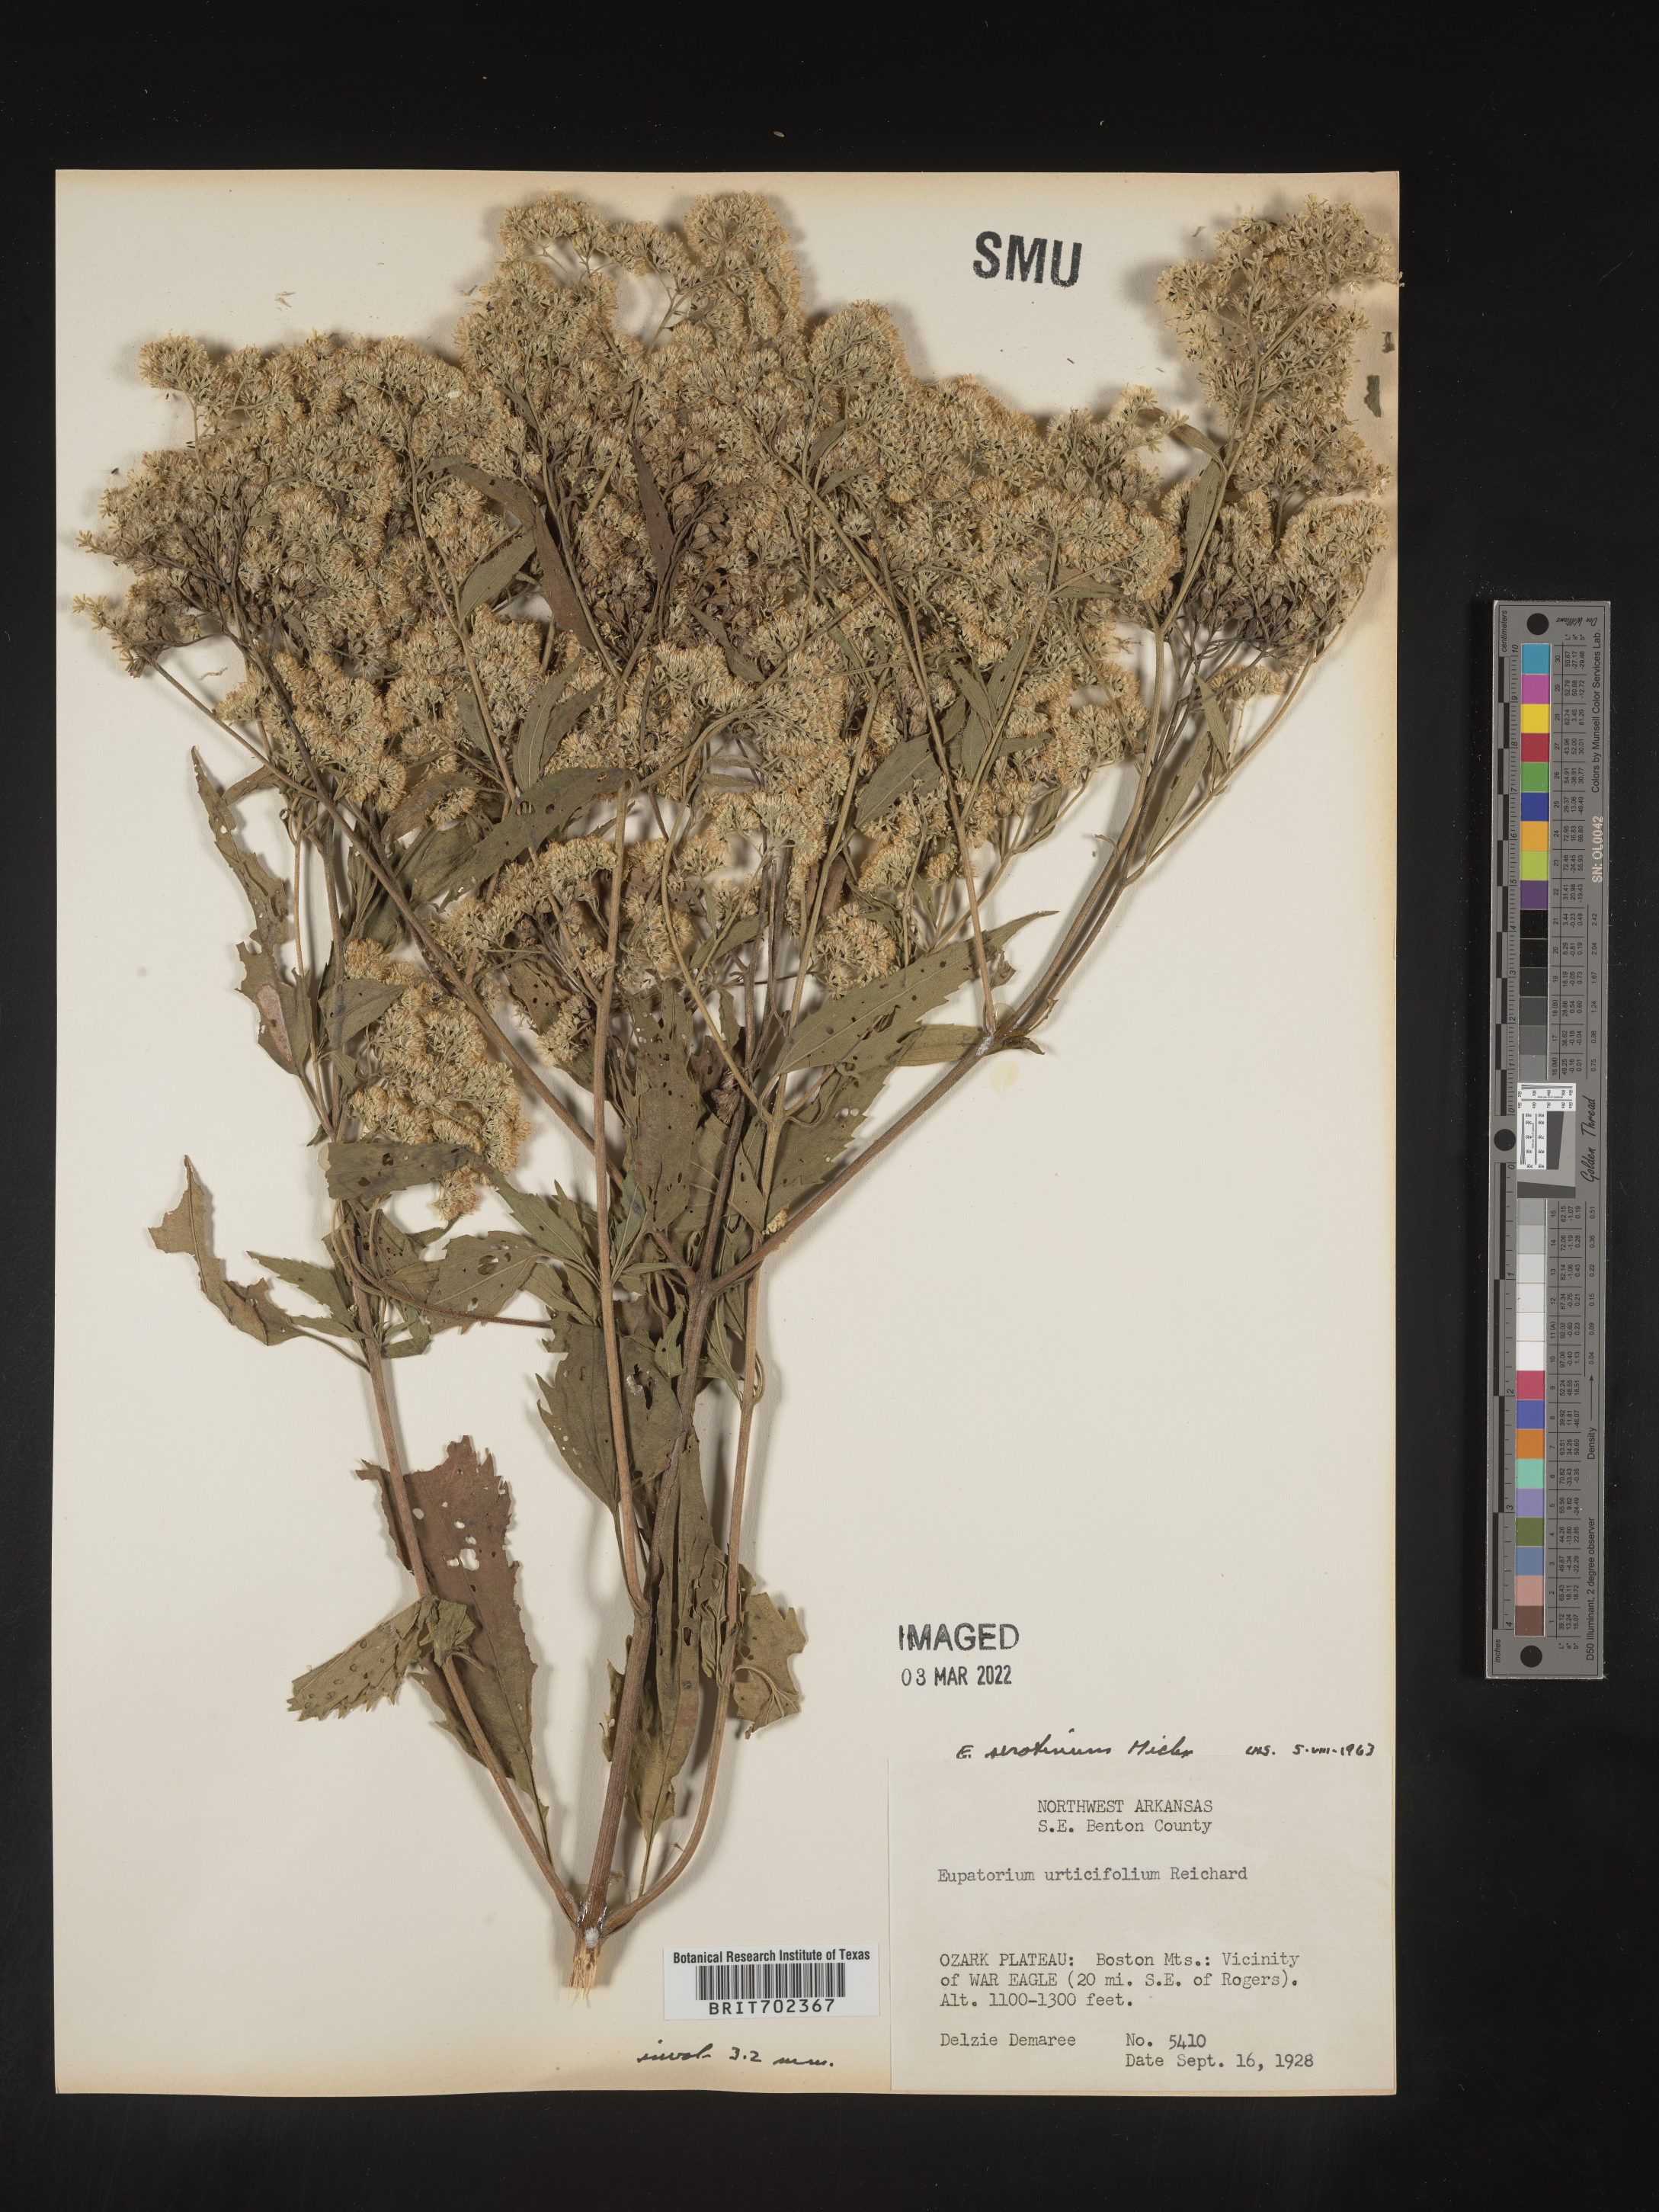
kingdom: Plantae
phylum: Tracheophyta
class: Magnoliopsida
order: Asterales
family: Asteraceae
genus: Eupatorium
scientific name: Eupatorium serotinum
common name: Late boneset
